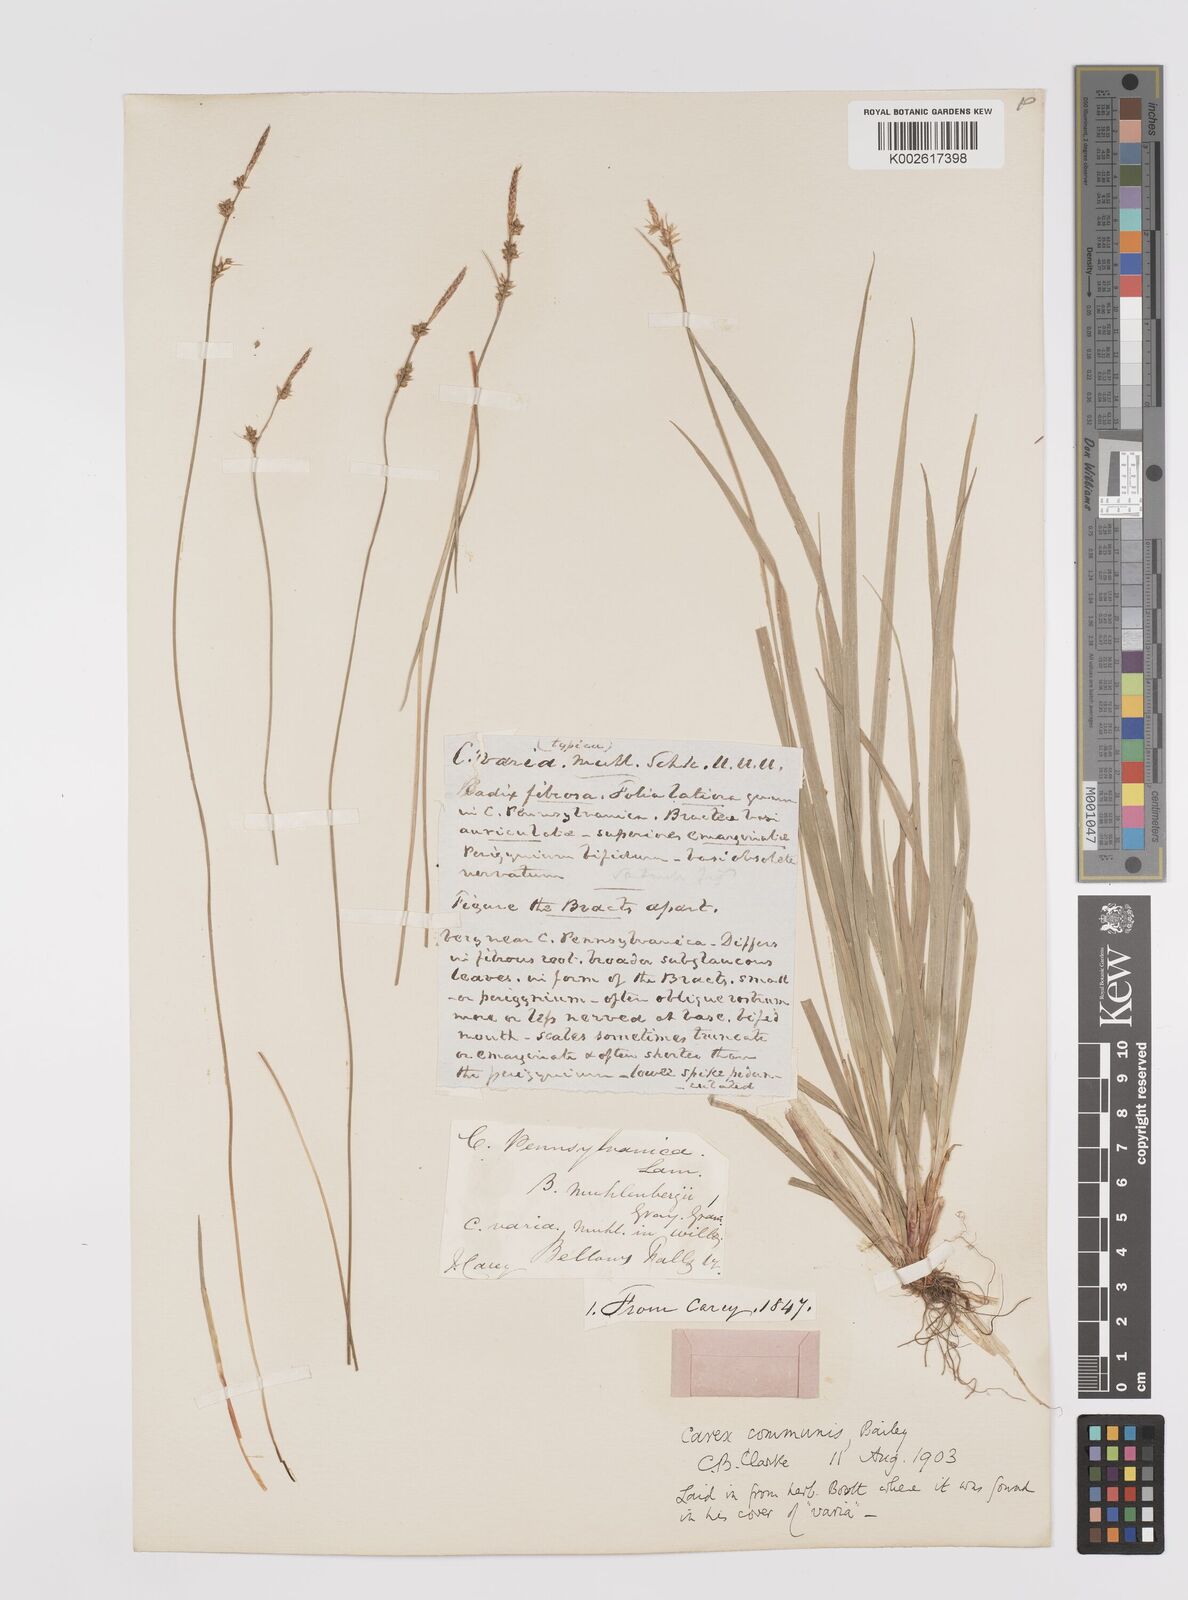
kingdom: Plantae
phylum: Tracheophyta
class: Liliopsida
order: Poales
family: Cyperaceae
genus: Carex
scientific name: Carex communis
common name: Colonial oak sedge
